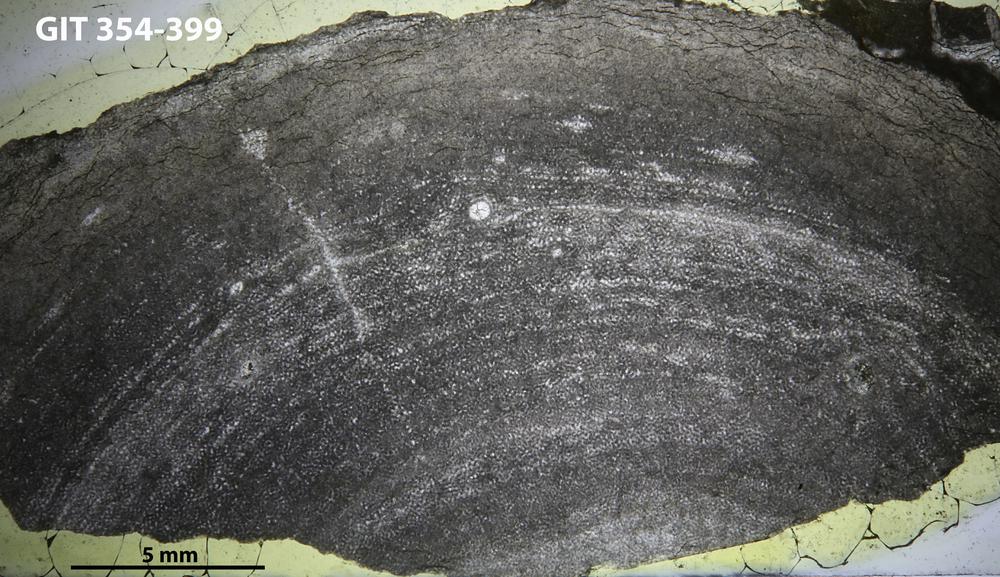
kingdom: Animalia
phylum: Porifera
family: Ecclimadictyidae
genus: Ecclimadictyon
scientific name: Ecclimadictyon Clathrodictyon microvesiculosum
